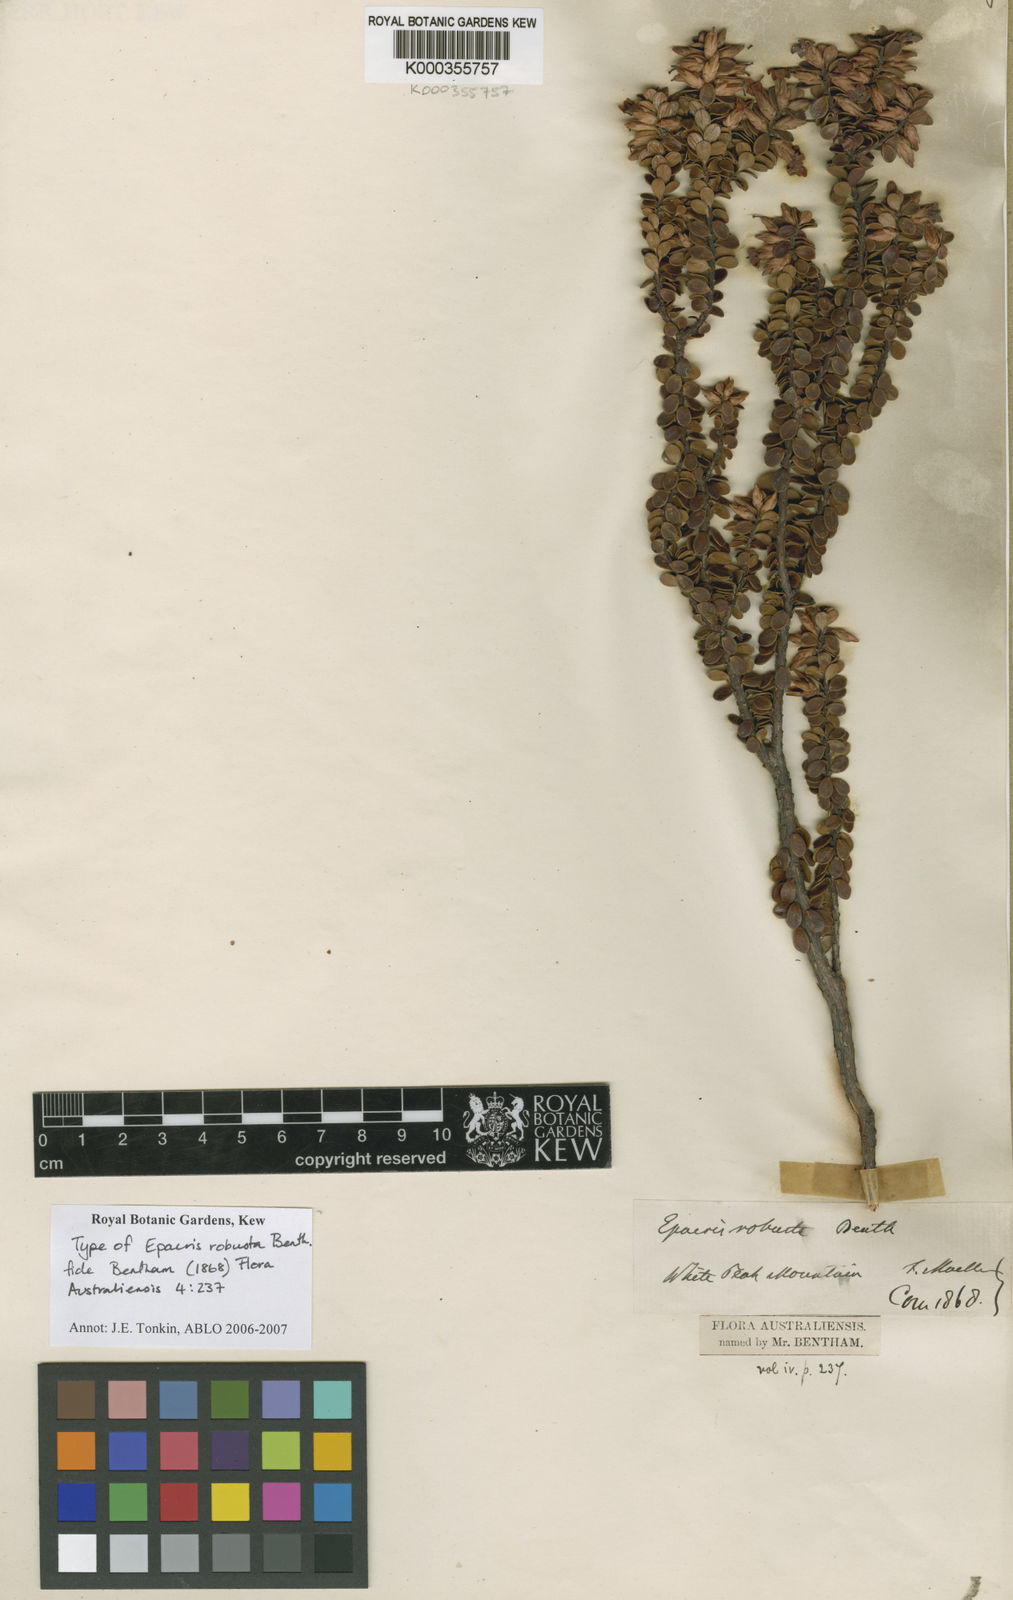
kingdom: Plantae
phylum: Tracheophyta
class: Magnoliopsida
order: Ericales
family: Ericaceae
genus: Epacris
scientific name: Epacris robusta
